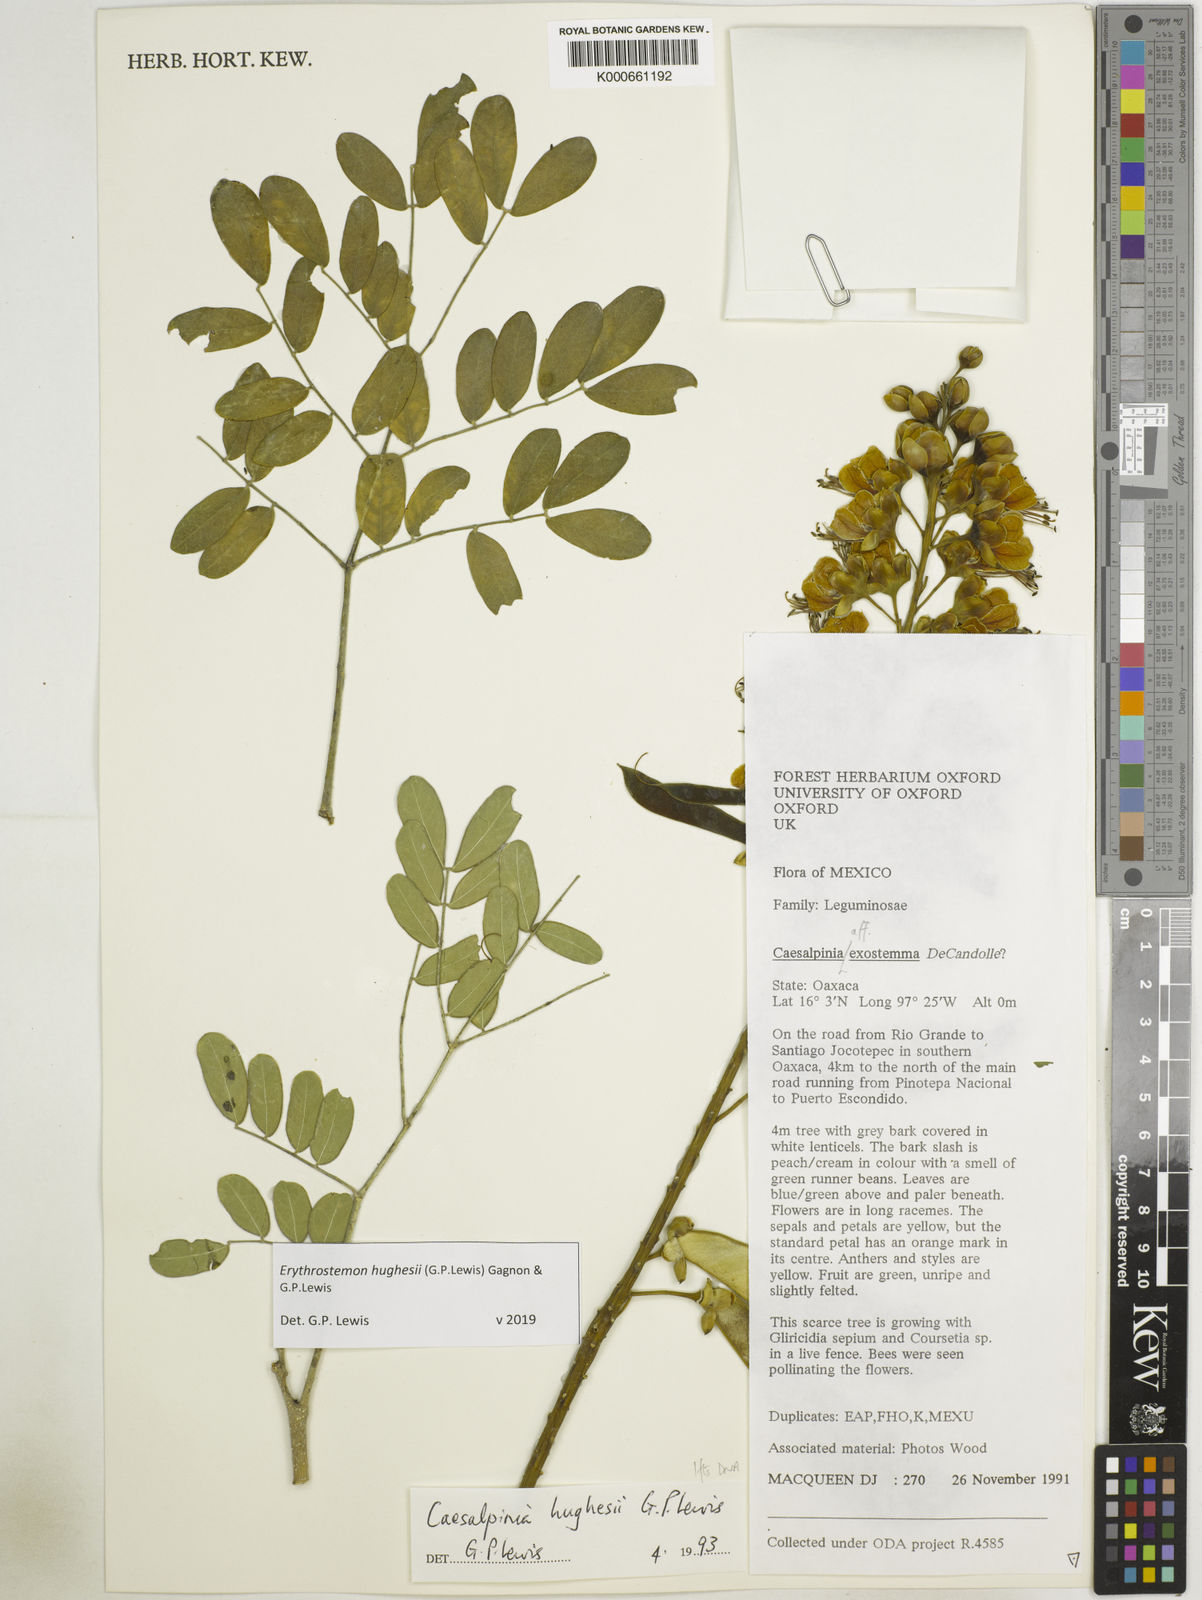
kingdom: Plantae
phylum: Tracheophyta
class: Magnoliopsida
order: Fabales
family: Fabaceae
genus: Erythrostemon
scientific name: Erythrostemon hughesii
